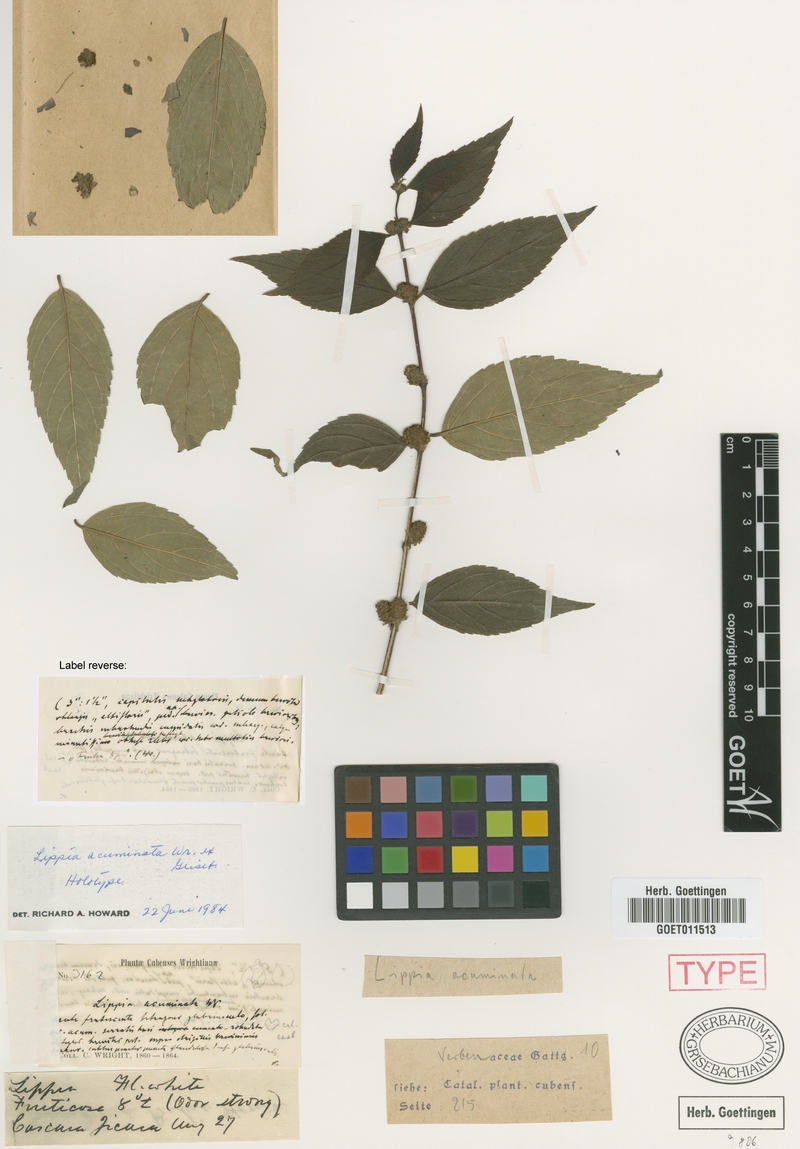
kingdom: Plantae
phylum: Tracheophyta
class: Magnoliopsida
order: Lamiales
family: Verbenaceae
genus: Lippia
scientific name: Lippia acuminata
